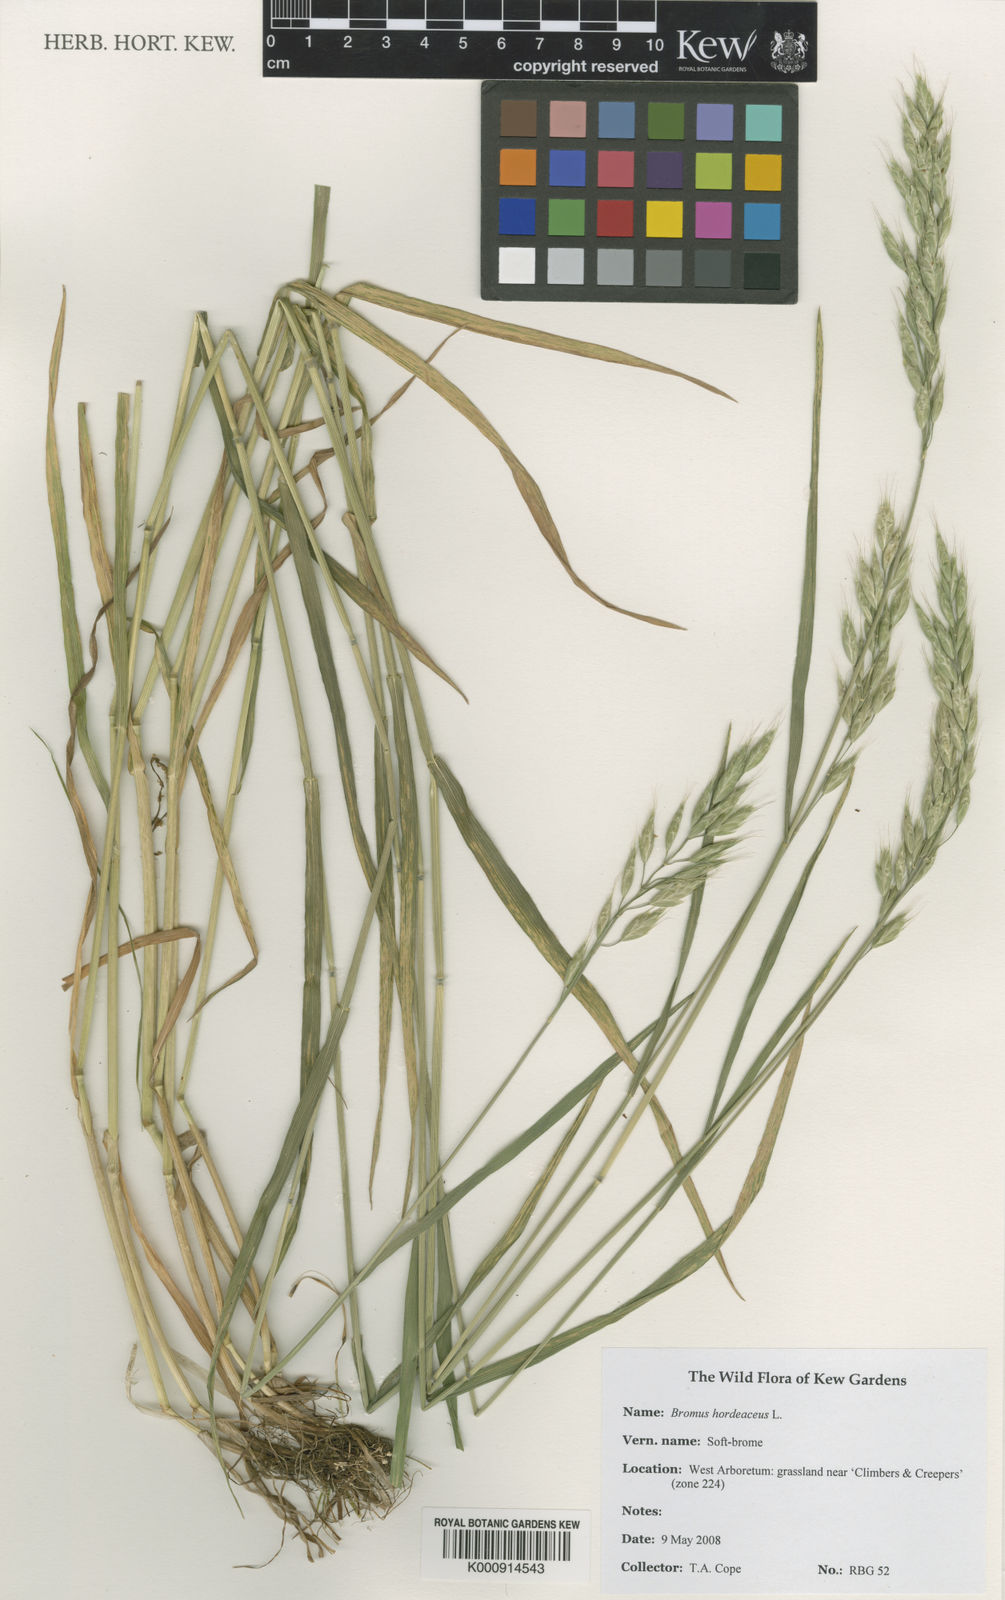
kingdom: Plantae
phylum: Tracheophyta
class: Liliopsida
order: Poales
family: Poaceae
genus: Bromus
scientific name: Bromus hordeaceus
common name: Soft brome
